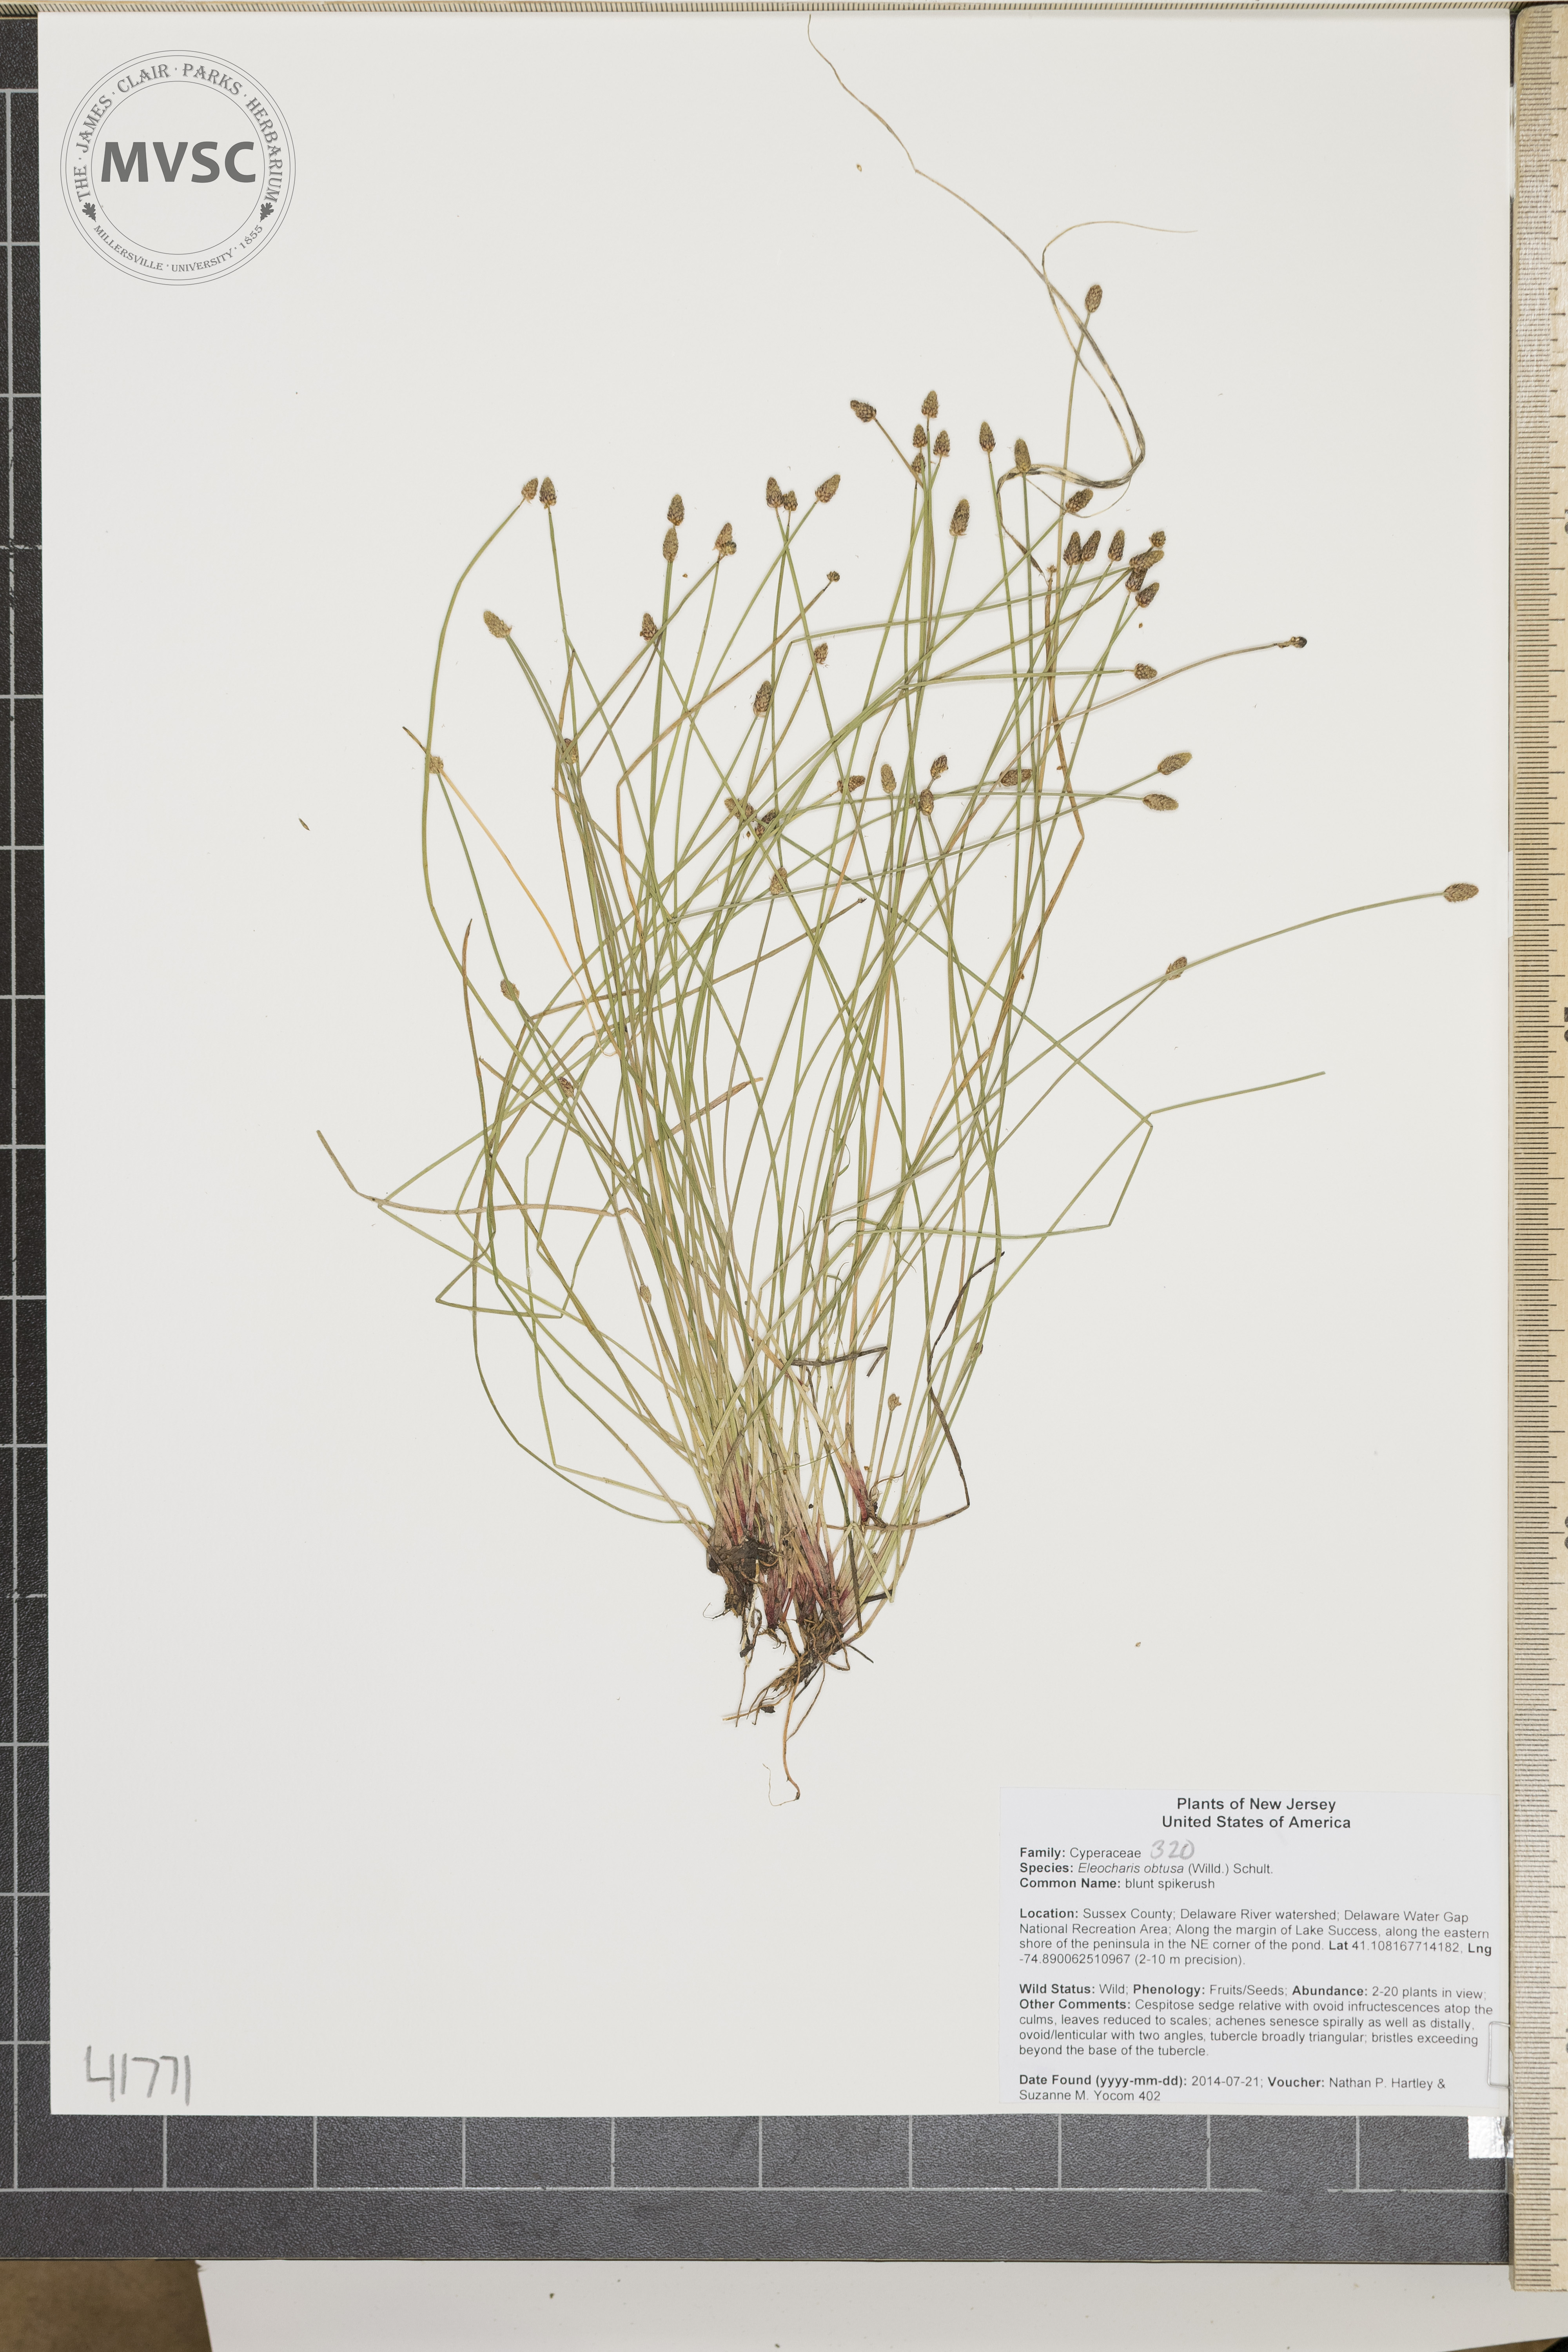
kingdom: Plantae
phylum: Tracheophyta
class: Liliopsida
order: Poales
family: Cyperaceae
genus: Eleocharis
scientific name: Eleocharis obtusa
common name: blunt spikerush
